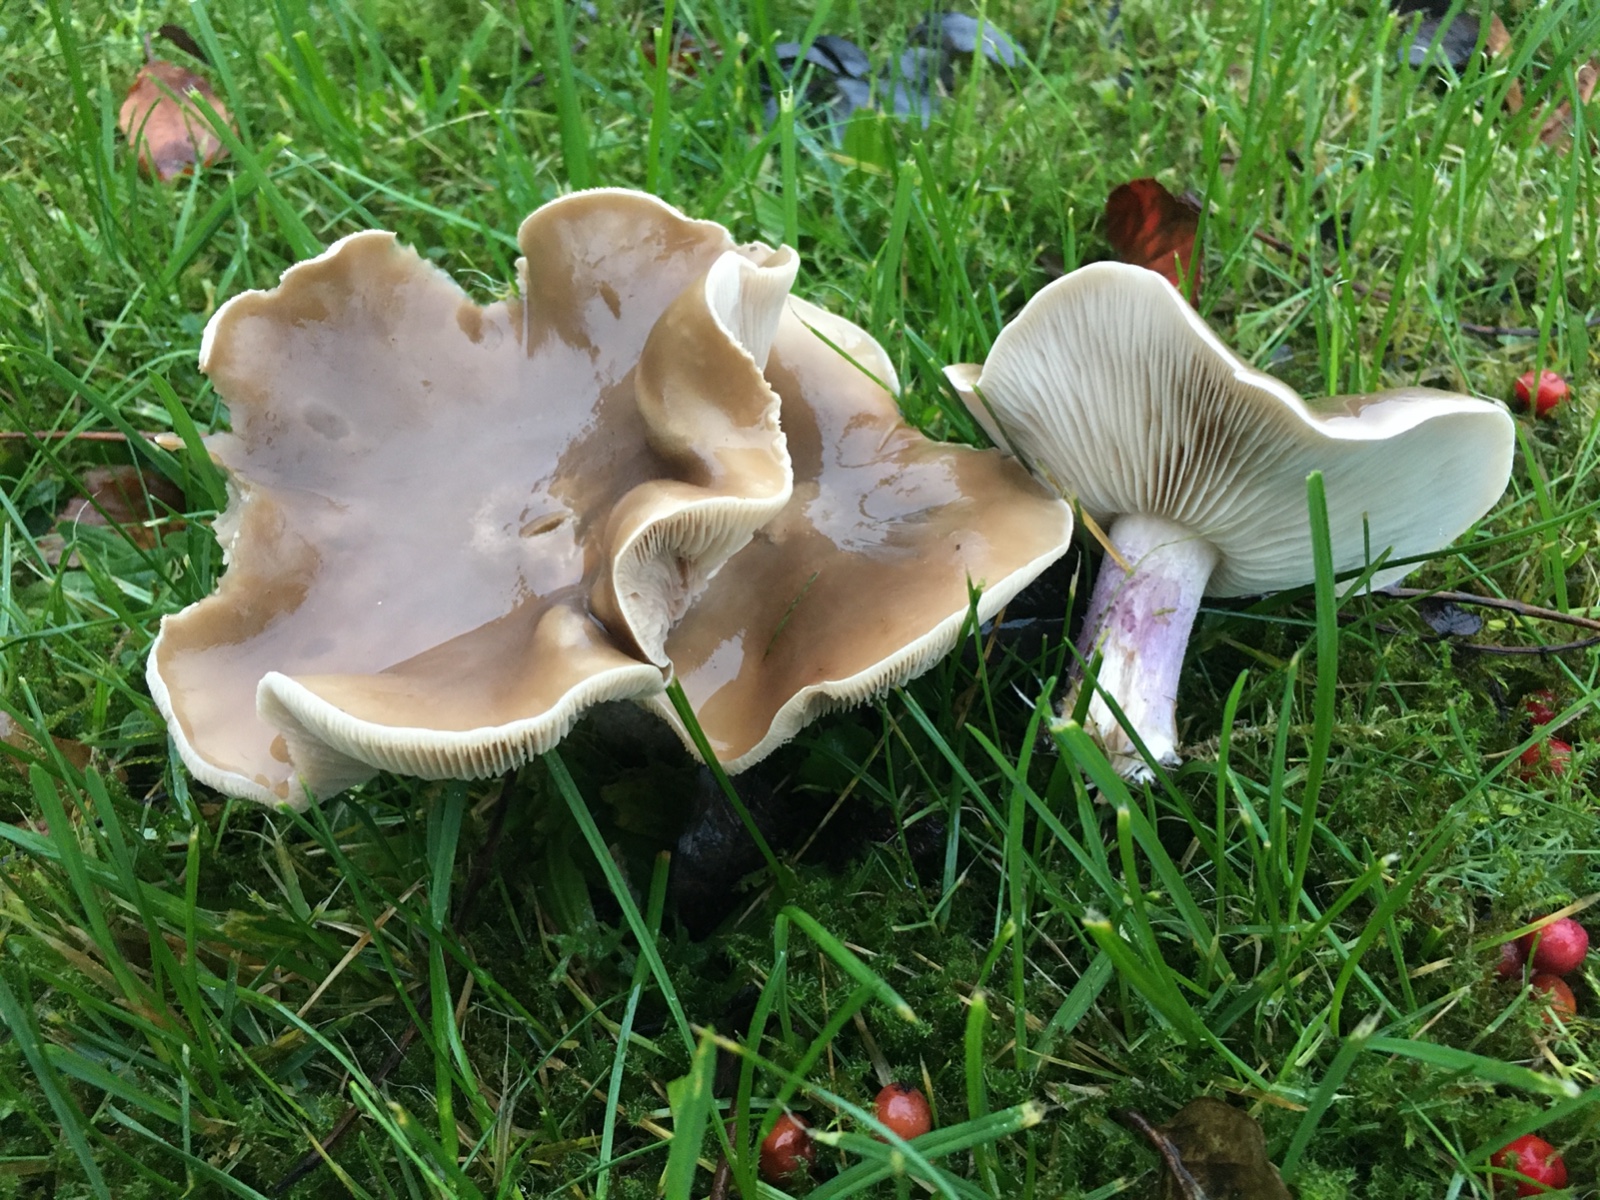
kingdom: Fungi
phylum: Basidiomycota
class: Agaricomycetes
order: Agaricales
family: Tricholomataceae
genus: Lepista
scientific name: Lepista personata
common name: bleg hekseringshat
